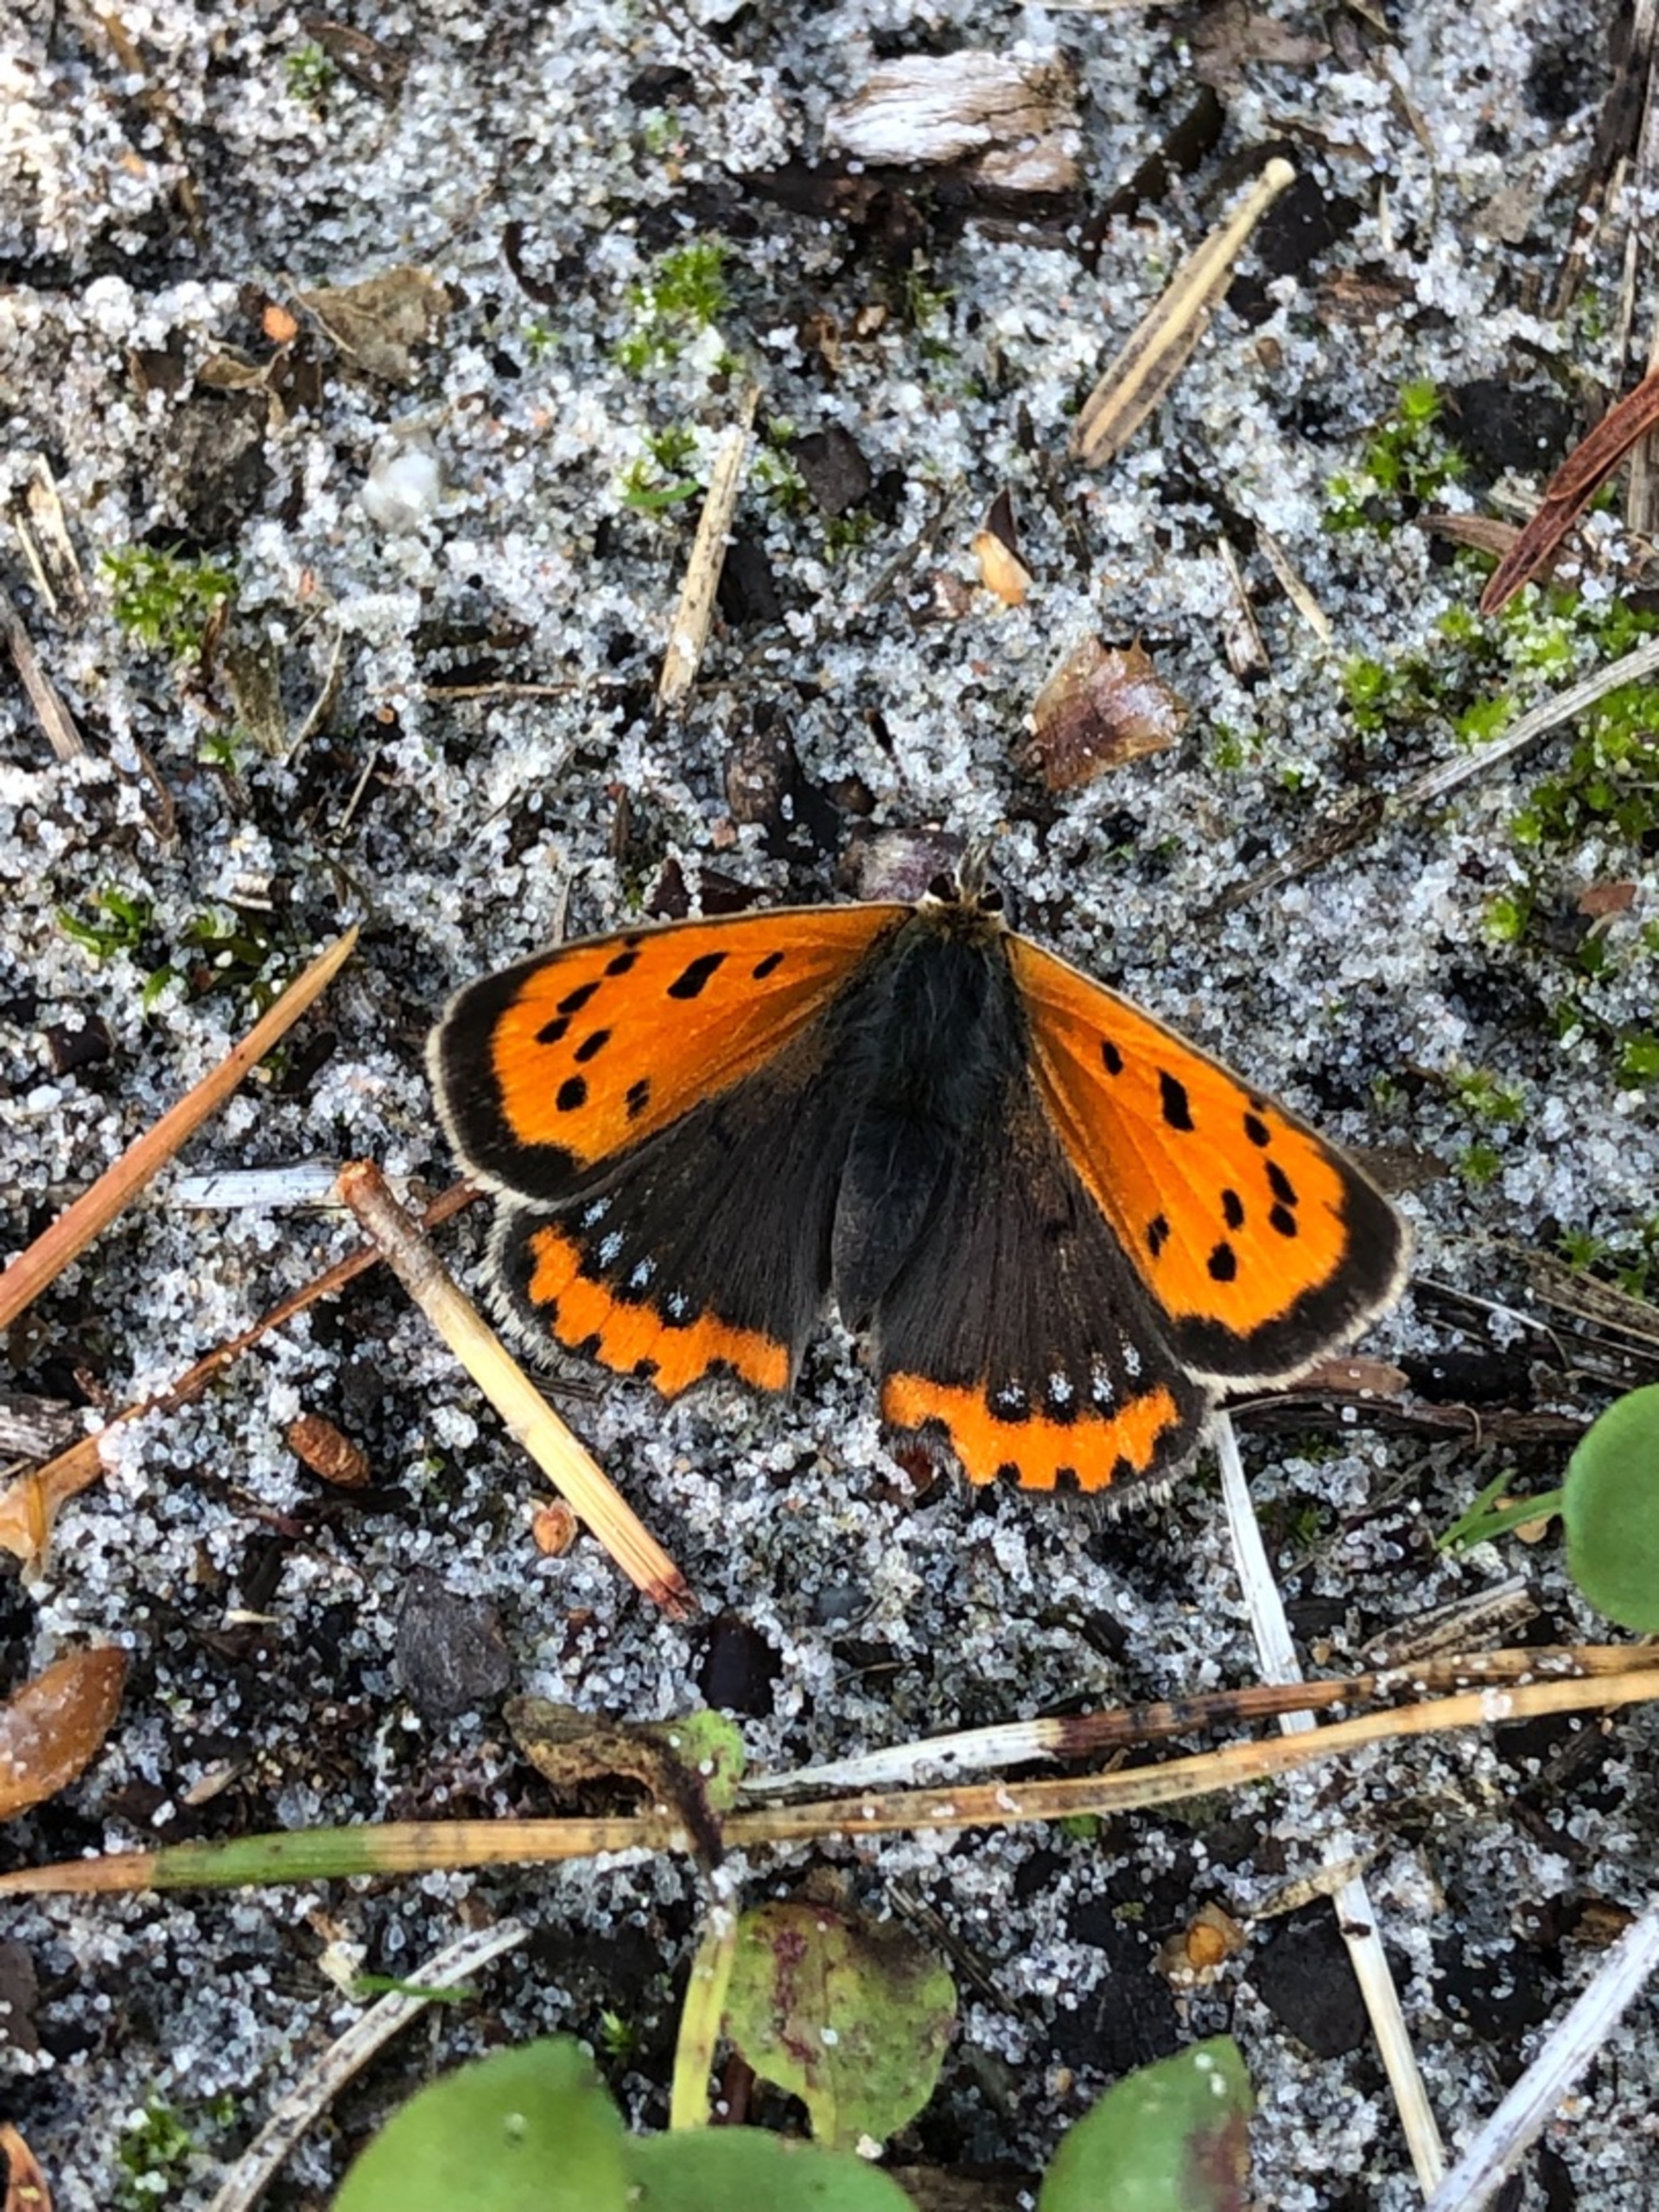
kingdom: Animalia
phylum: Arthropoda
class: Insecta
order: Lepidoptera
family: Lycaenidae
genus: Lycaena
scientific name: Lycaena phlaeas
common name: Lille ildfugl
